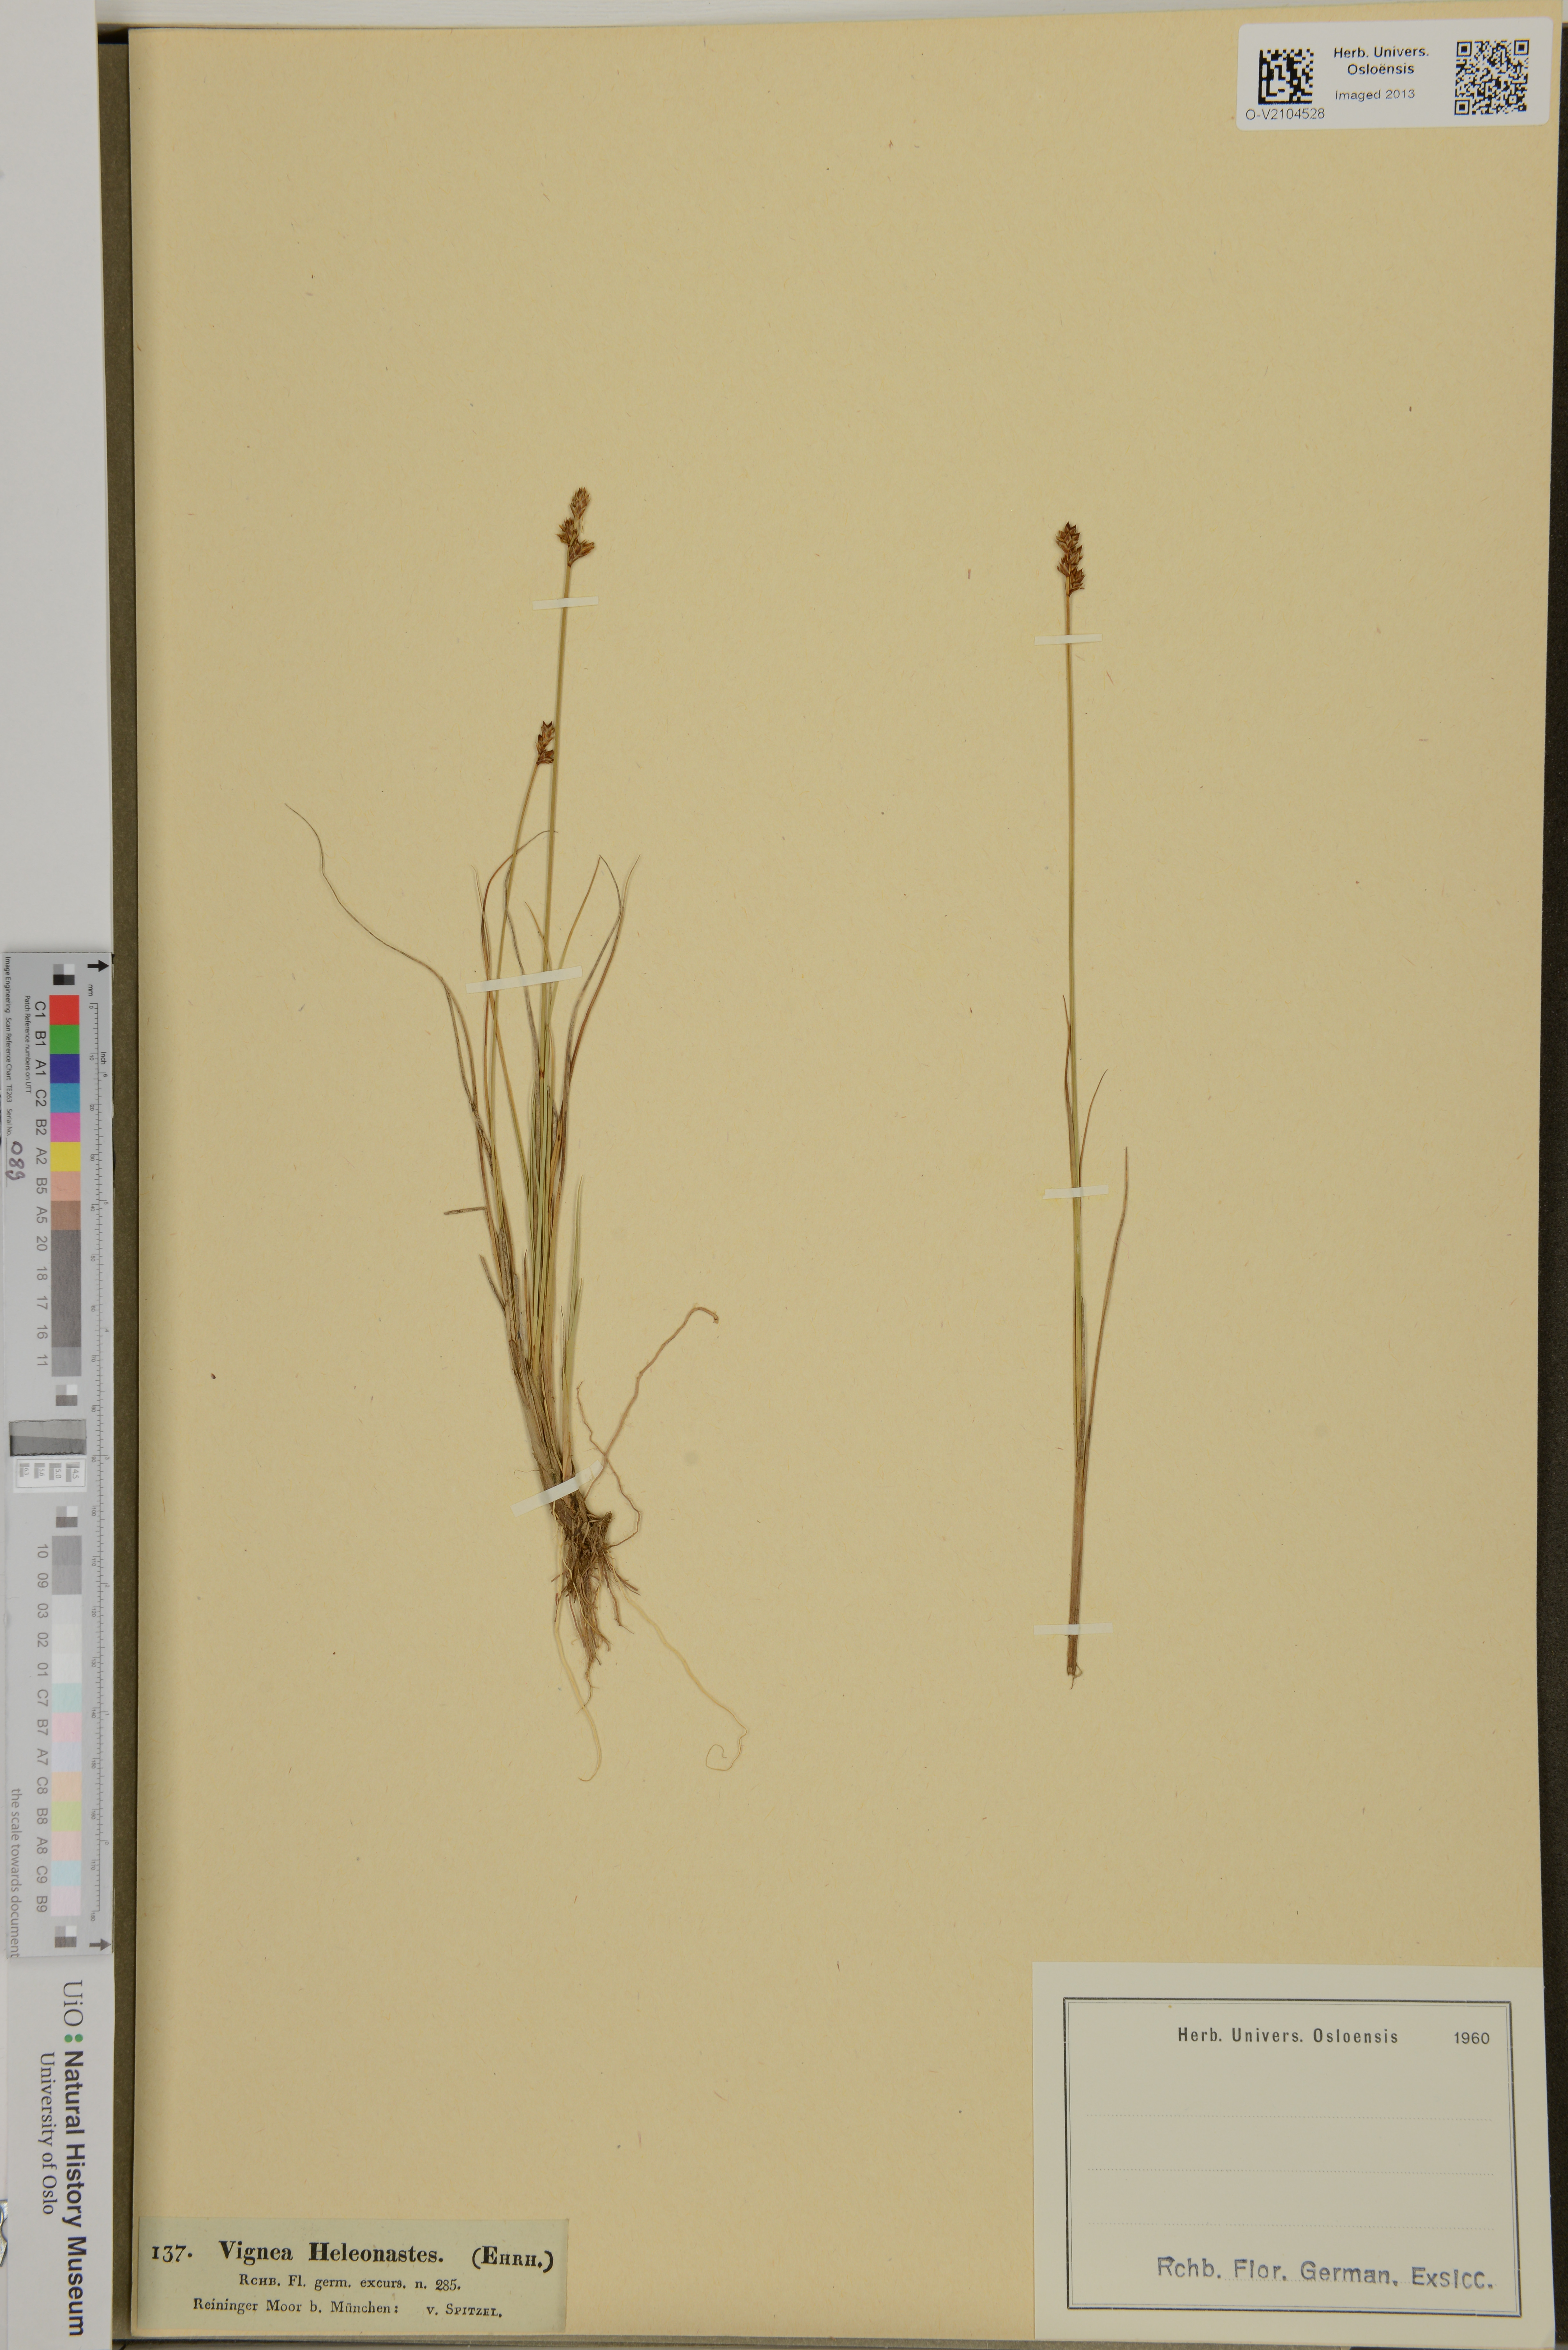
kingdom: Plantae
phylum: Tracheophyta
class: Liliopsida
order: Poales
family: Cyperaceae
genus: Carex
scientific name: Carex heleonastes
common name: Hudson bay sedge
